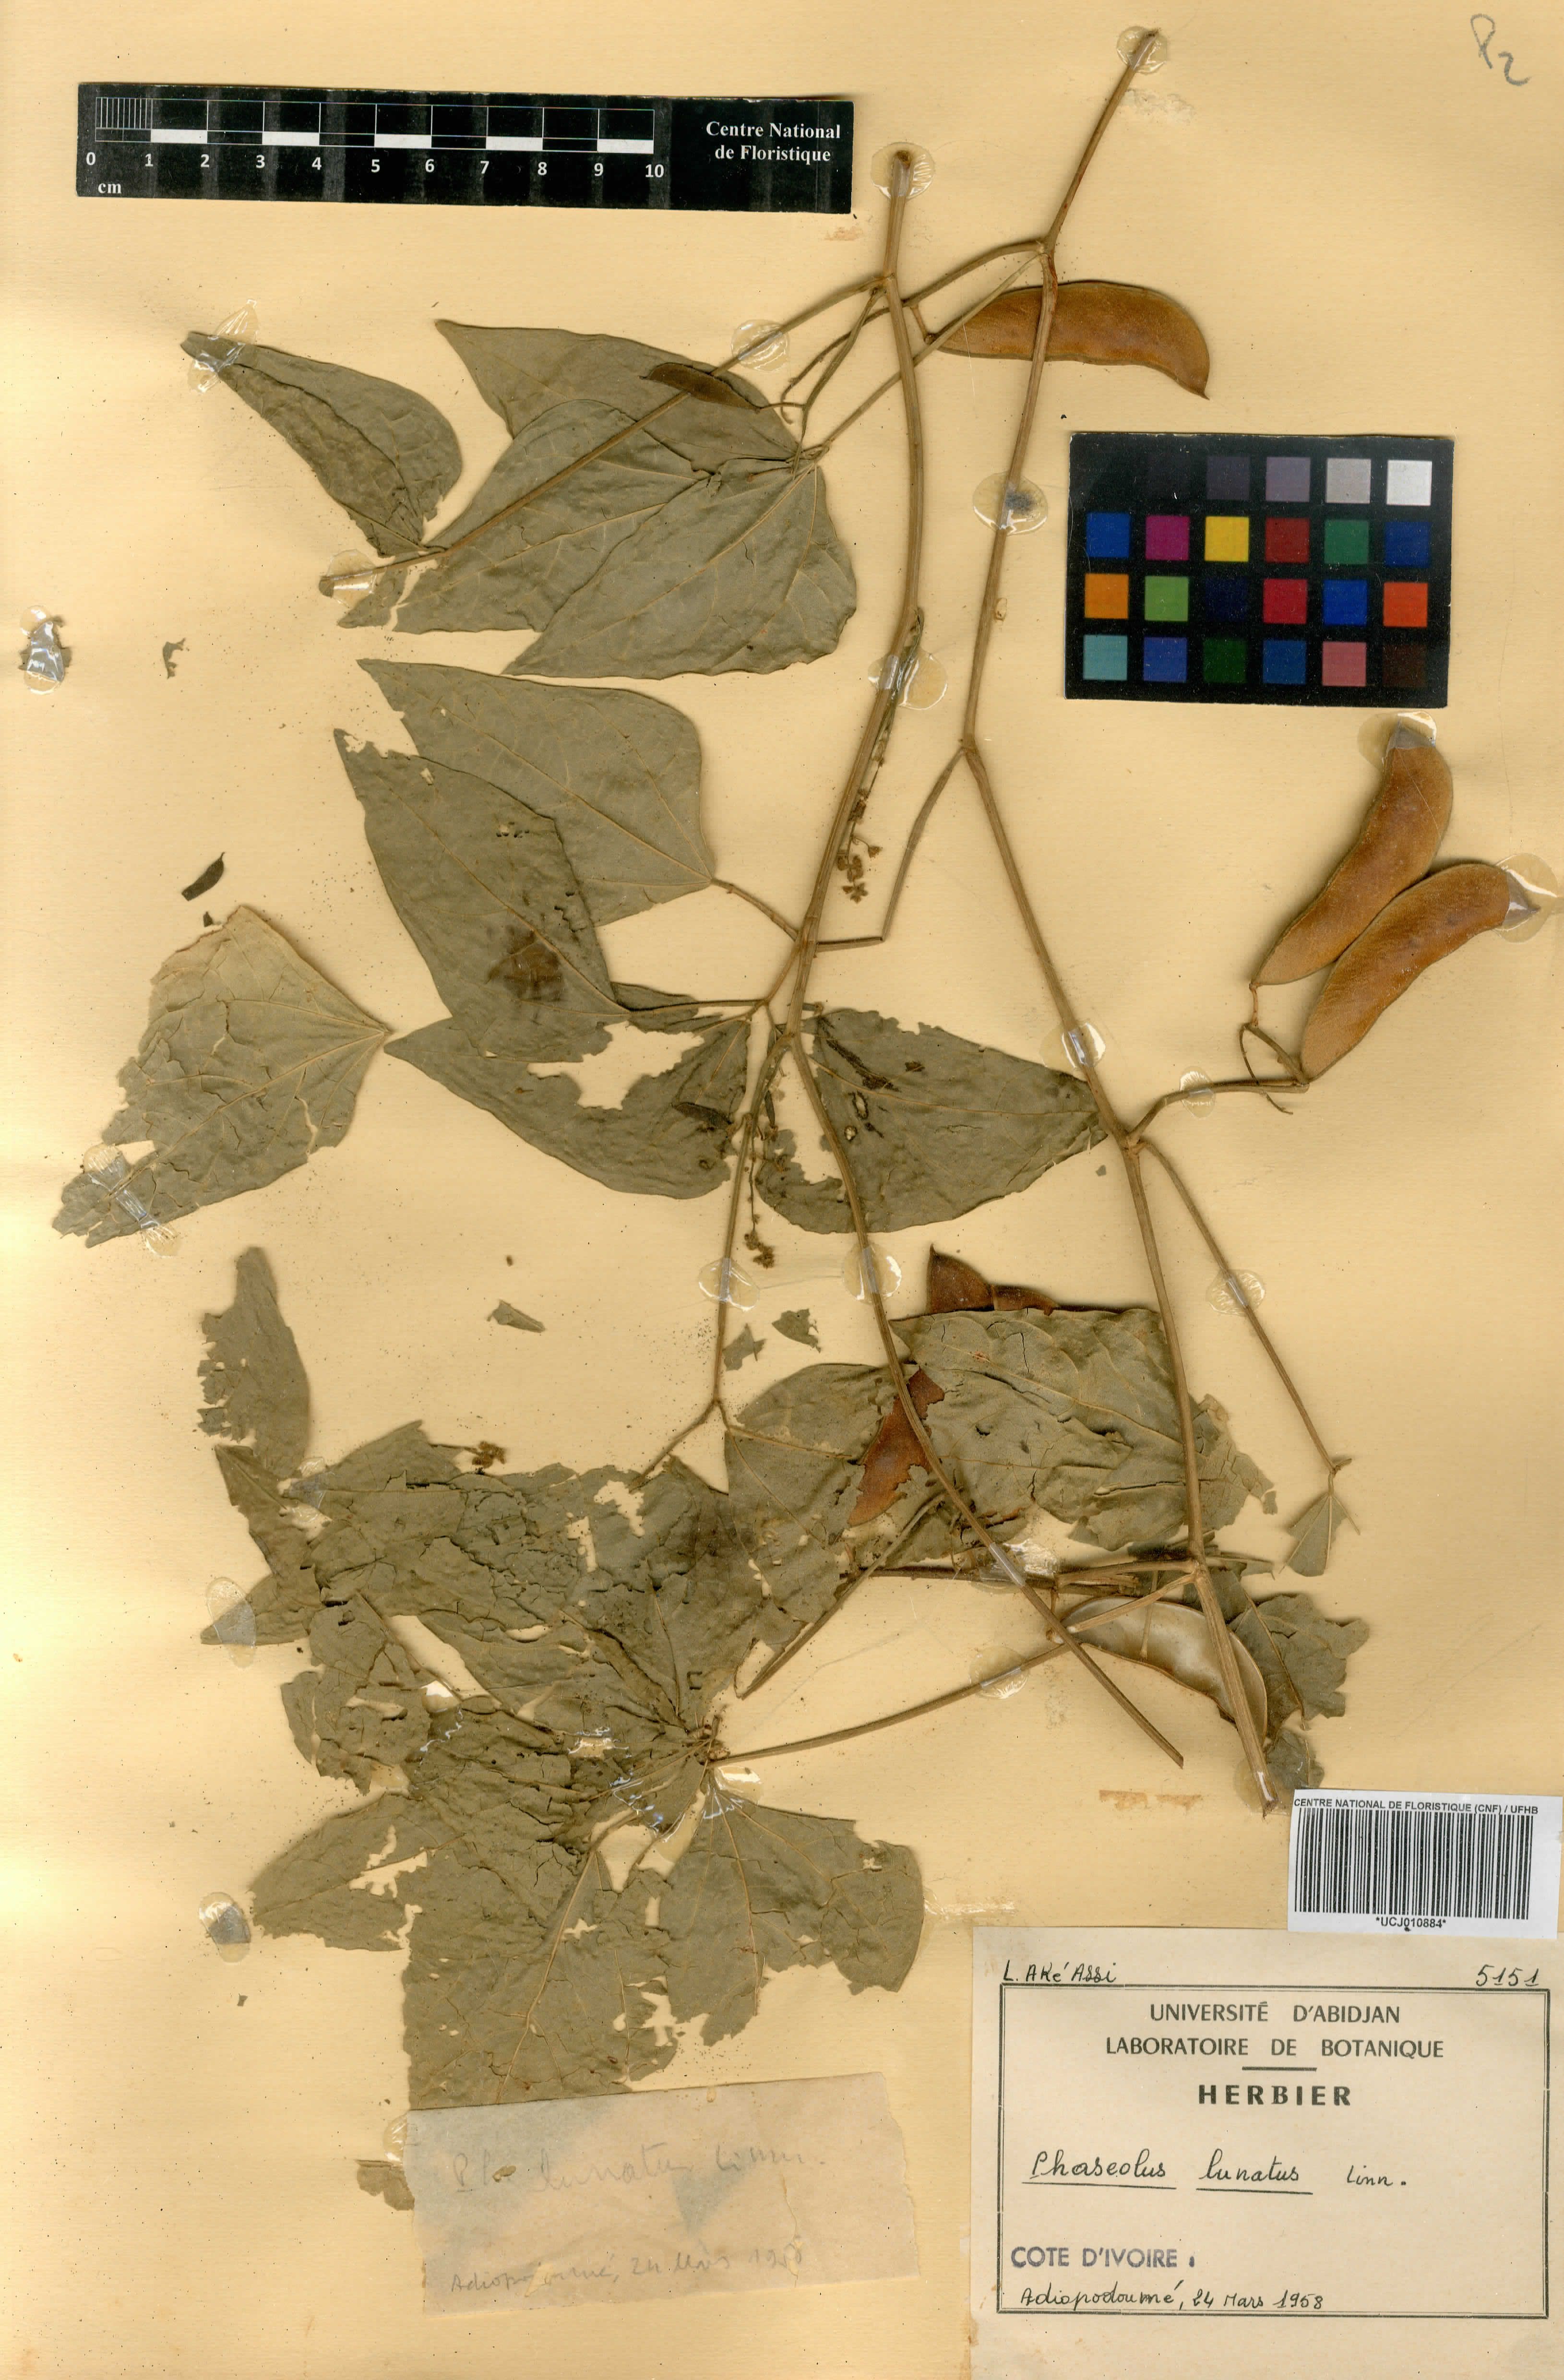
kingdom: Plantae
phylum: Tracheophyta
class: Magnoliopsida
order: Fabales
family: Fabaceae
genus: Phaseolus
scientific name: Phaseolus lunatus
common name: Sieva bean
